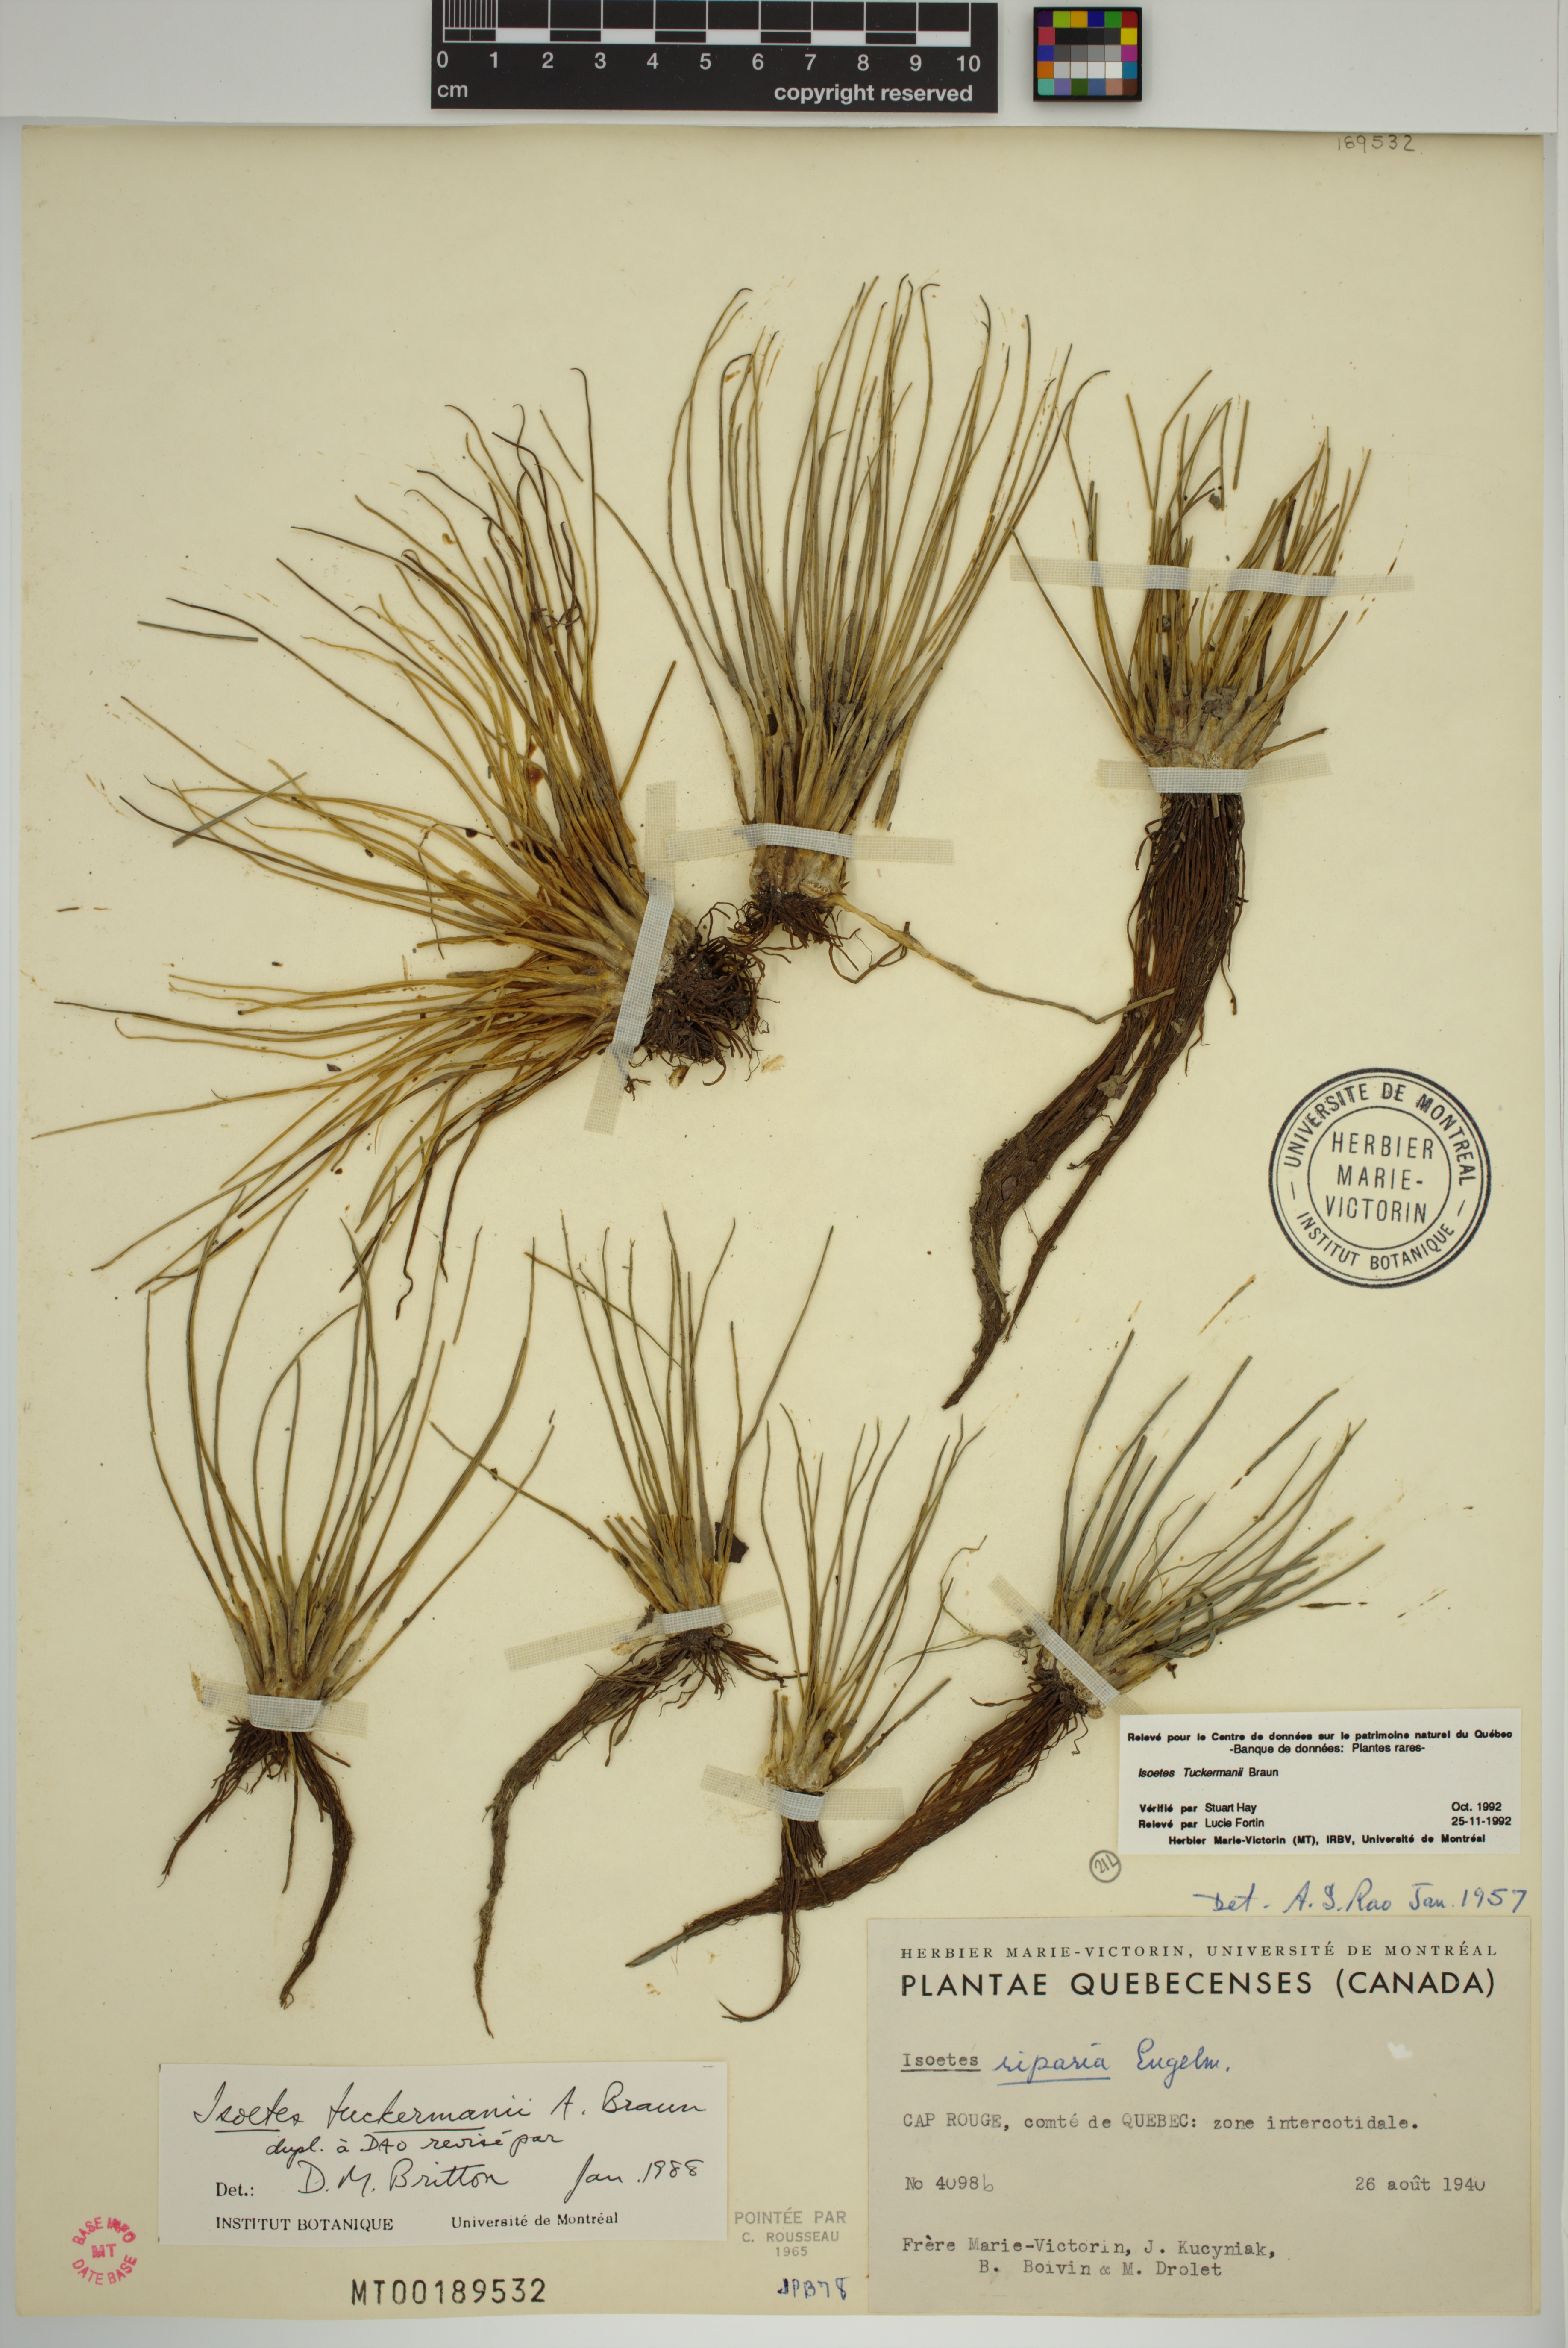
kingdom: Plantae
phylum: Tracheophyta
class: Lycopodiopsida
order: Isoetales
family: Isoetaceae
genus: Isoetes
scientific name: Isoetes laurentiana
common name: St. lawrence quillwort
